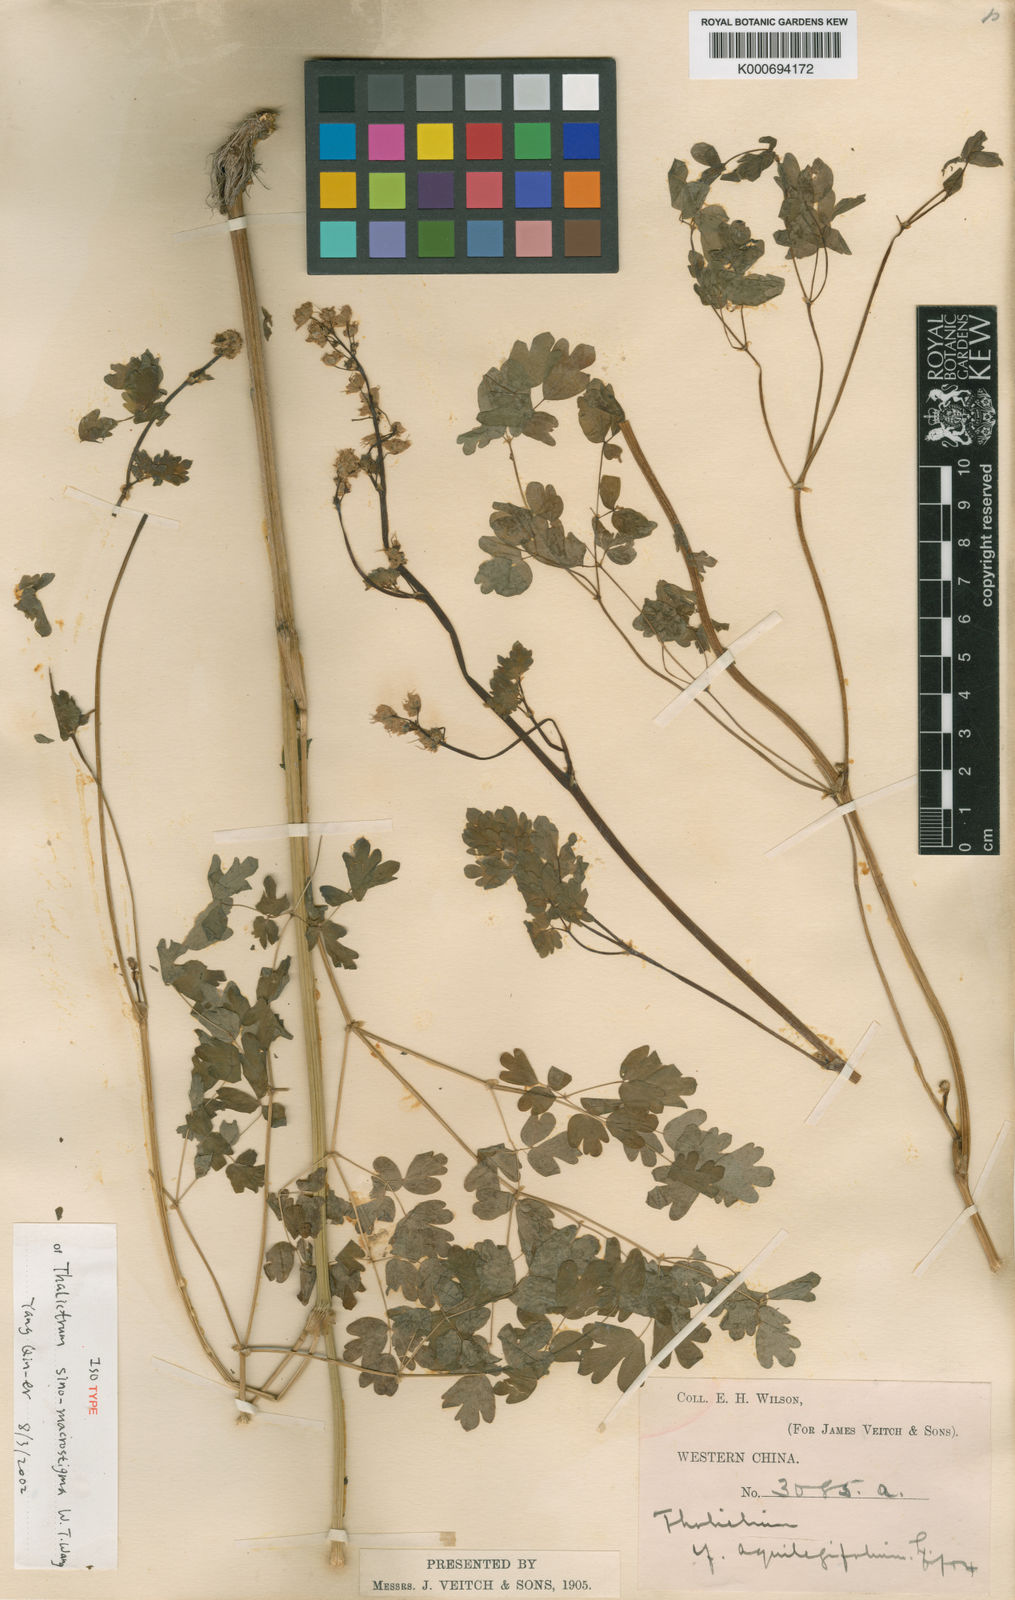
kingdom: Plantae
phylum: Tracheophyta
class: Magnoliopsida
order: Ranunculales
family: Ranunculaceae
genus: Thalictrum
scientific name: Thalictrum leuconotum
